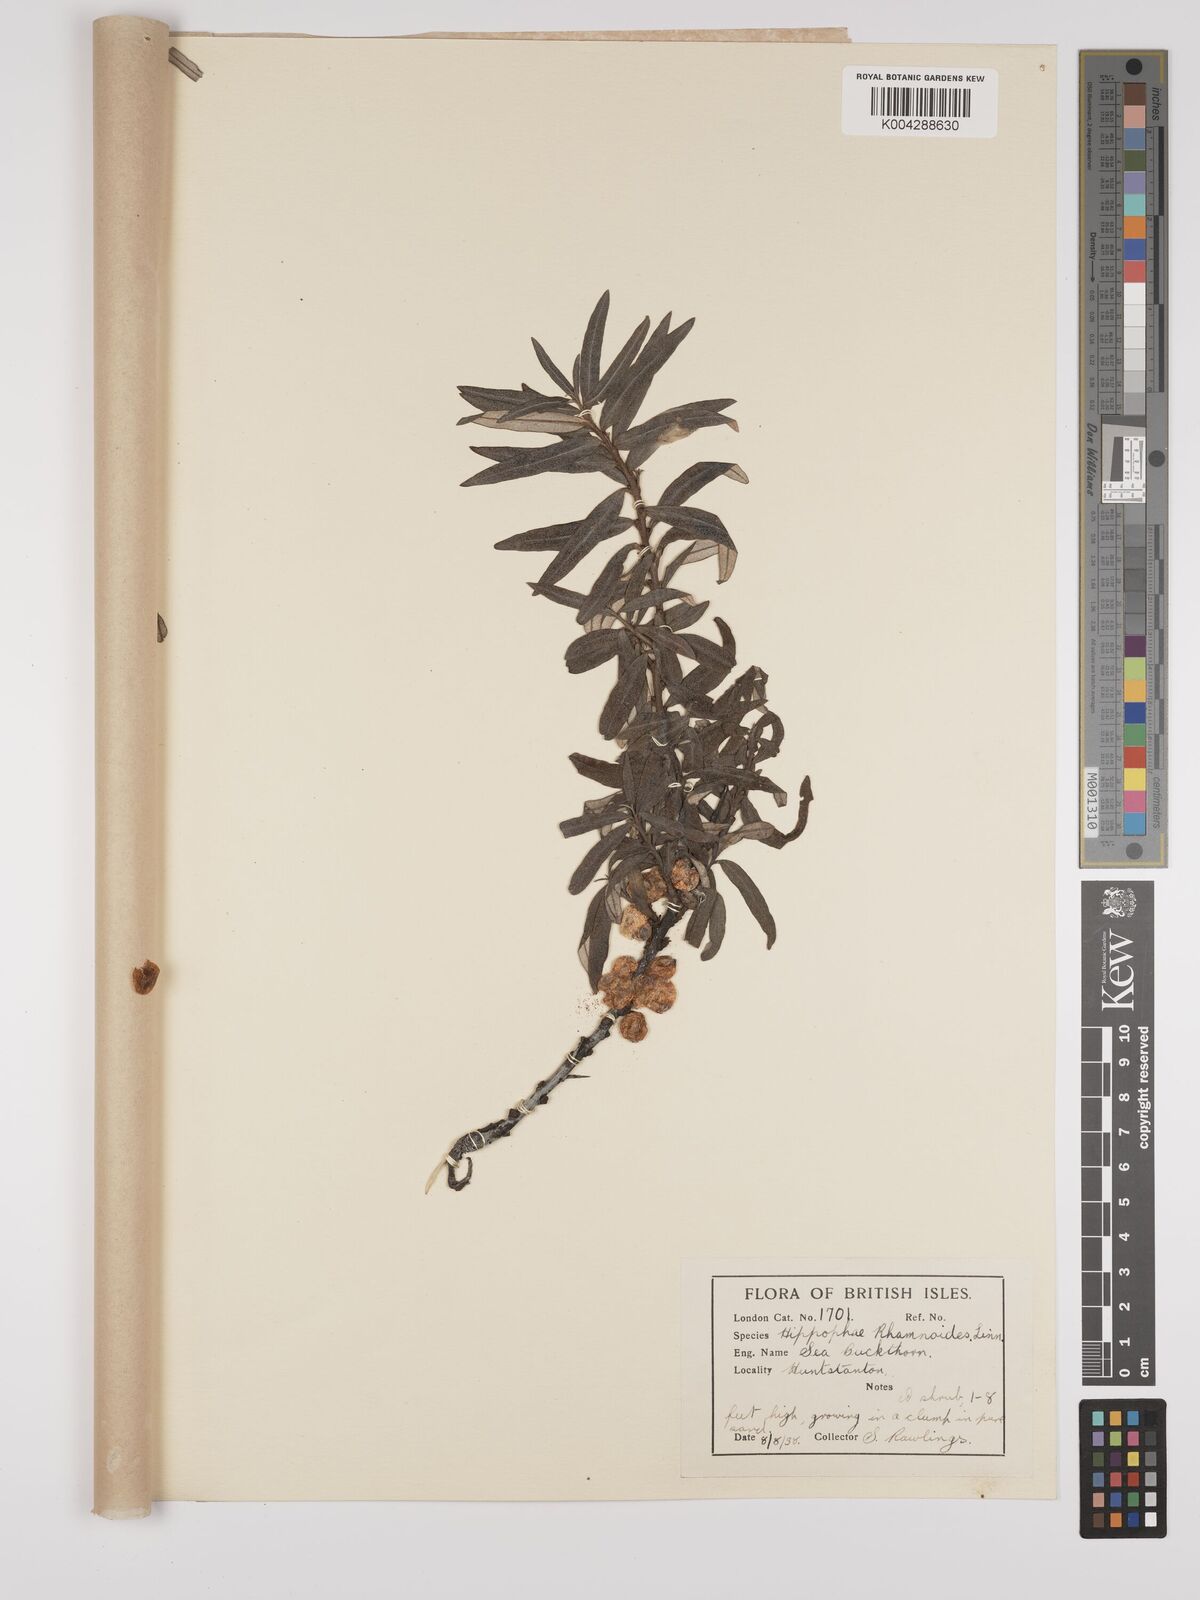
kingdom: Plantae
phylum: Tracheophyta
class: Magnoliopsida
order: Rosales
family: Elaeagnaceae
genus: Hippophae
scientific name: Hippophae rhamnoides
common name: Sea-buckthorn
